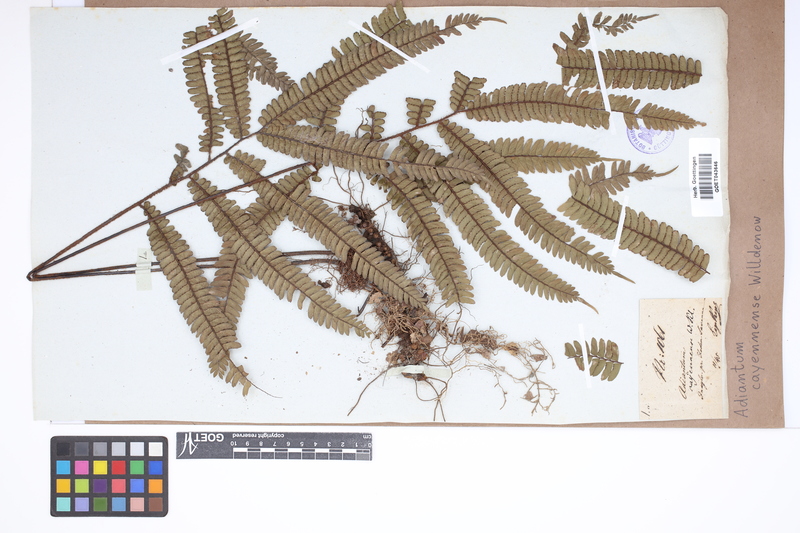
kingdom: Plantae
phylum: Tracheophyta
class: Polypodiopsida
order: Polypodiales
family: Pteridaceae
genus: Adiantum
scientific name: Adiantum cajennense
